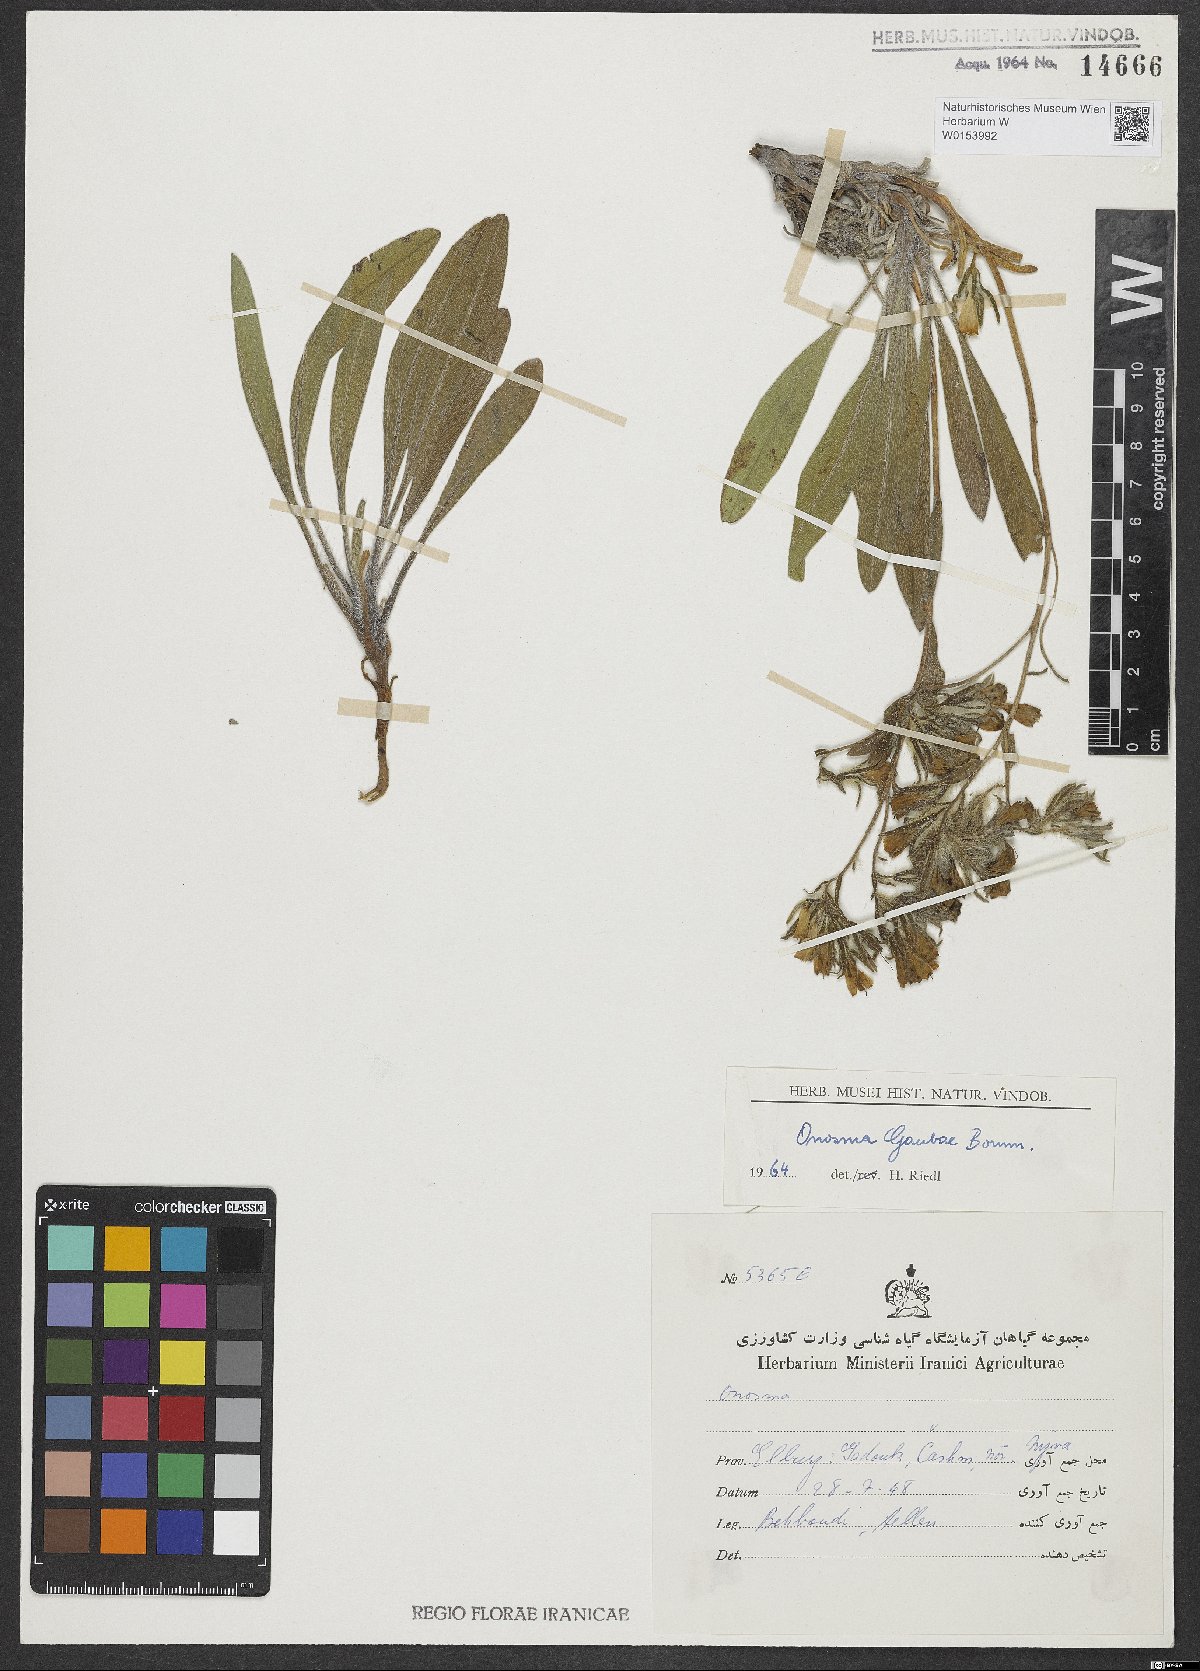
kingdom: Plantae
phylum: Tracheophyta
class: Magnoliopsida
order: Boraginales
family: Boraginaceae
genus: Onosma
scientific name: Onosma gaubae
